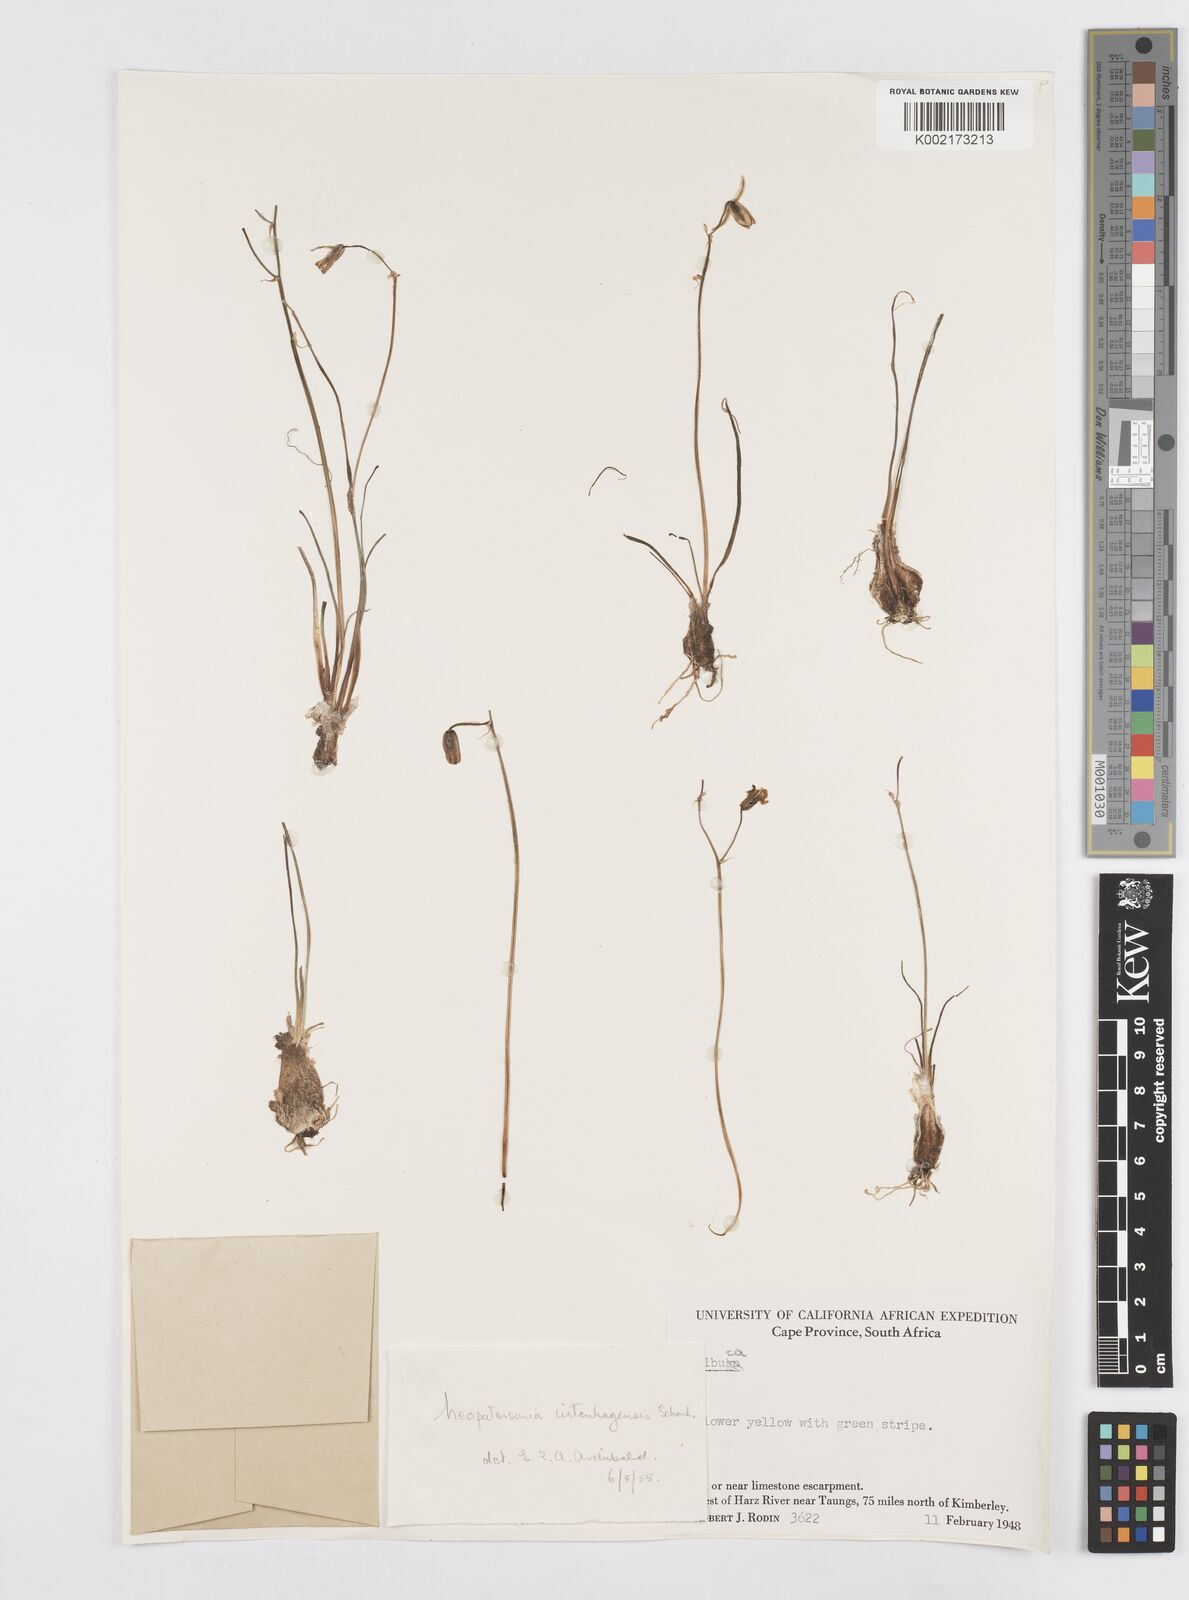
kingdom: Plantae
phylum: Tracheophyta
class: Liliopsida
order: Asparagales
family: Asparagaceae
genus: Albuca
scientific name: Albuca
